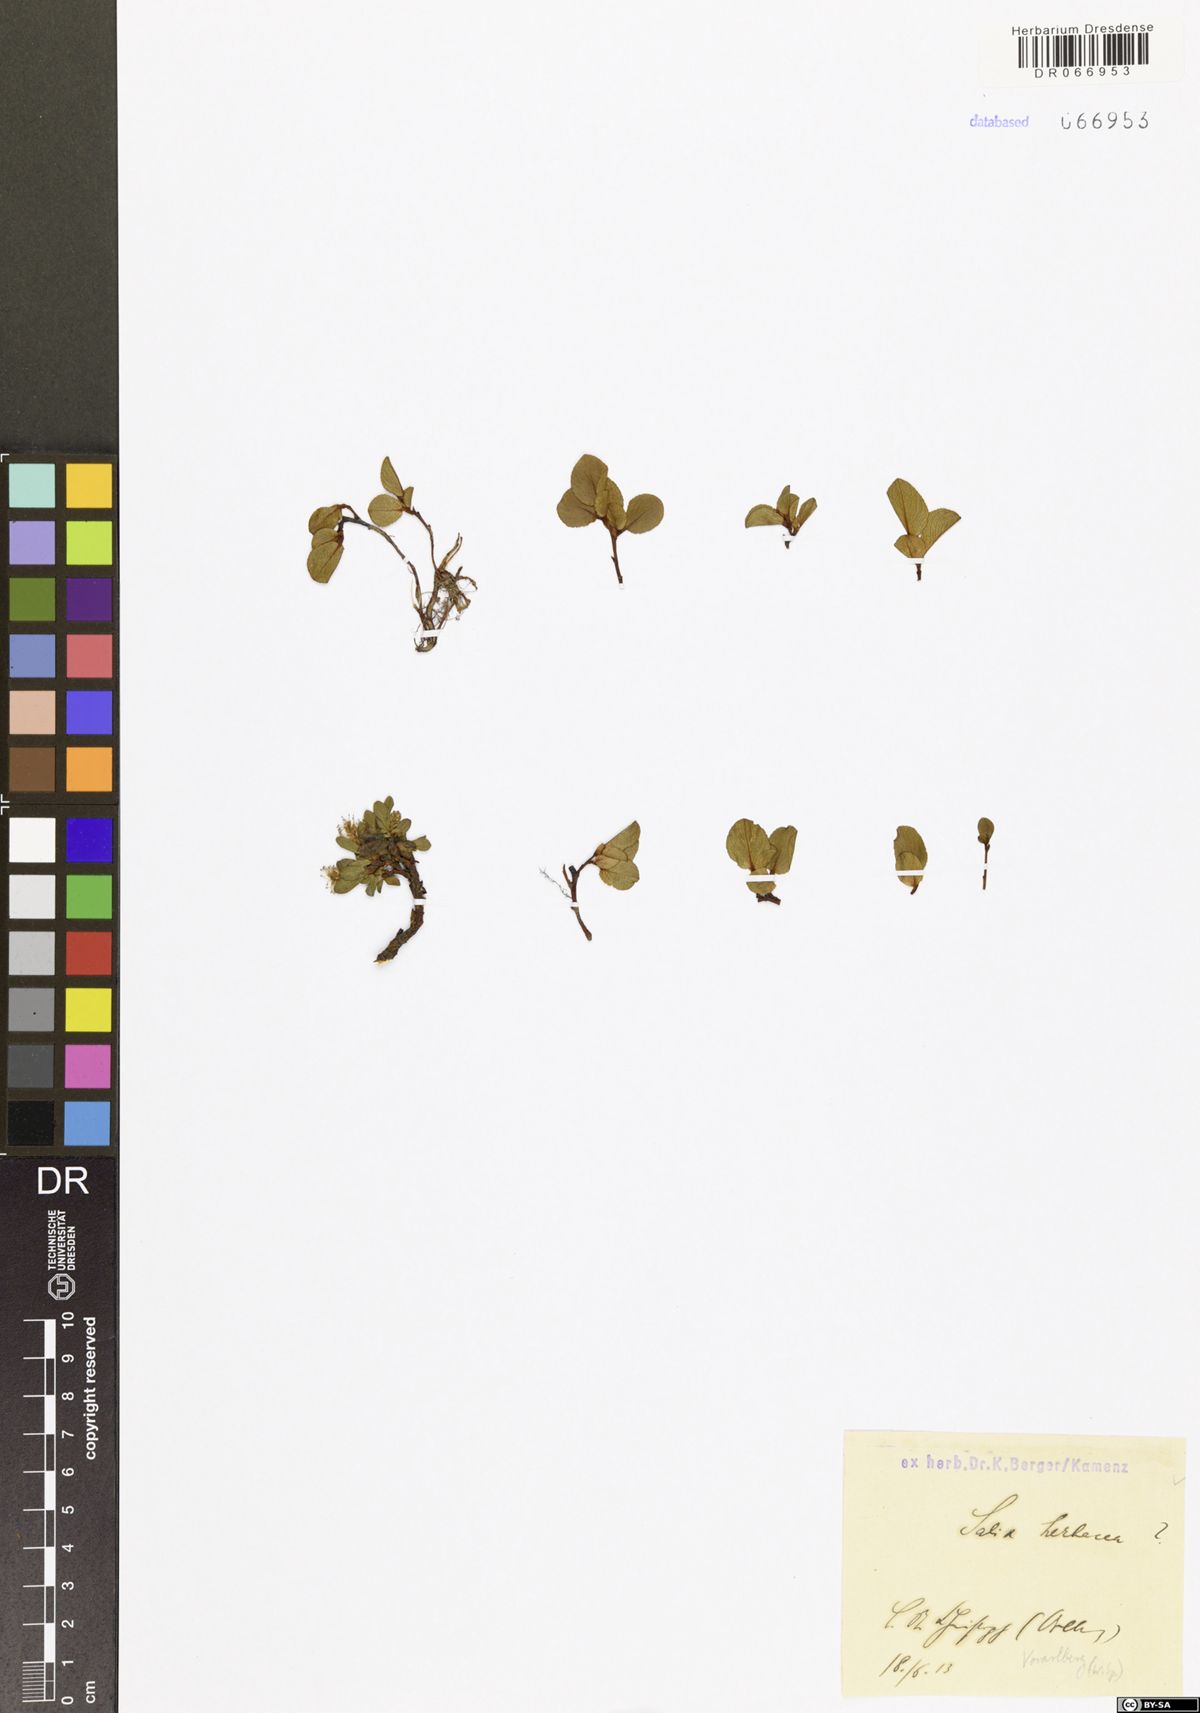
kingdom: Plantae
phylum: Tracheophyta
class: Magnoliopsida
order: Malpighiales
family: Salicaceae
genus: Salix
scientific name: Salix herbacea
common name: Dwarf willow
